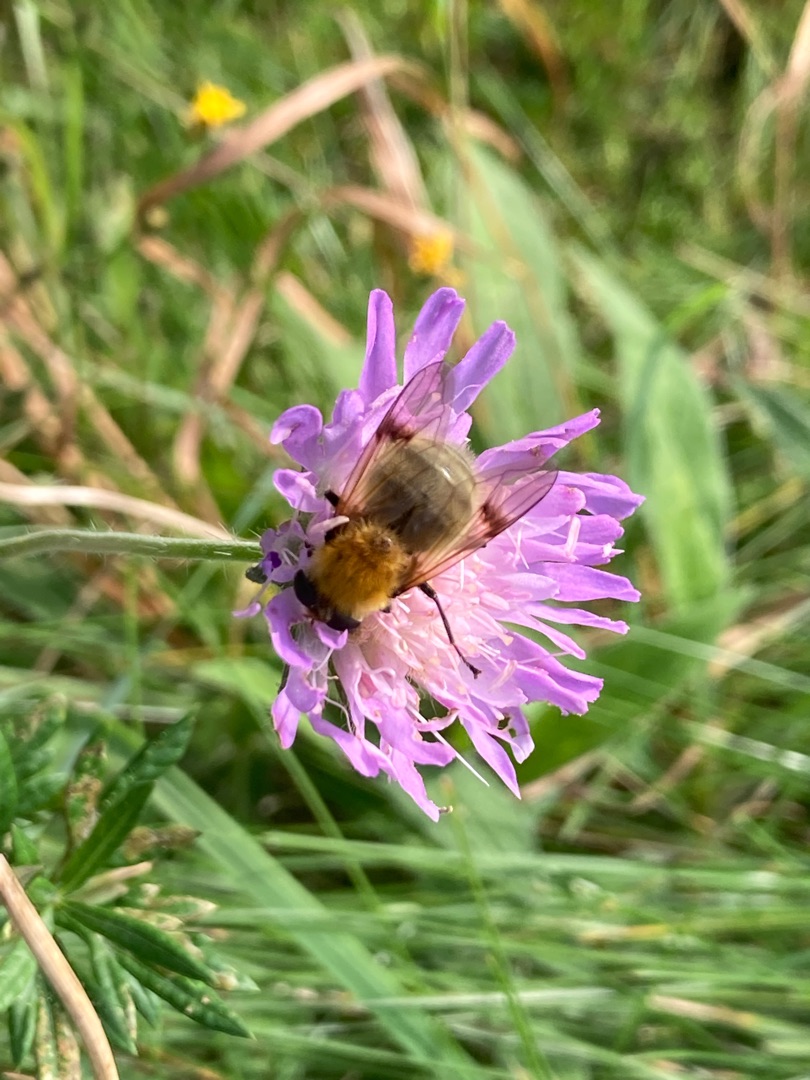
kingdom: Animalia
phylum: Arthropoda
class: Insecta
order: Diptera
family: Syrphidae
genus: Sericomyia
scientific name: Sericomyia superbiens
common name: Brun bjørnesvirreflue
